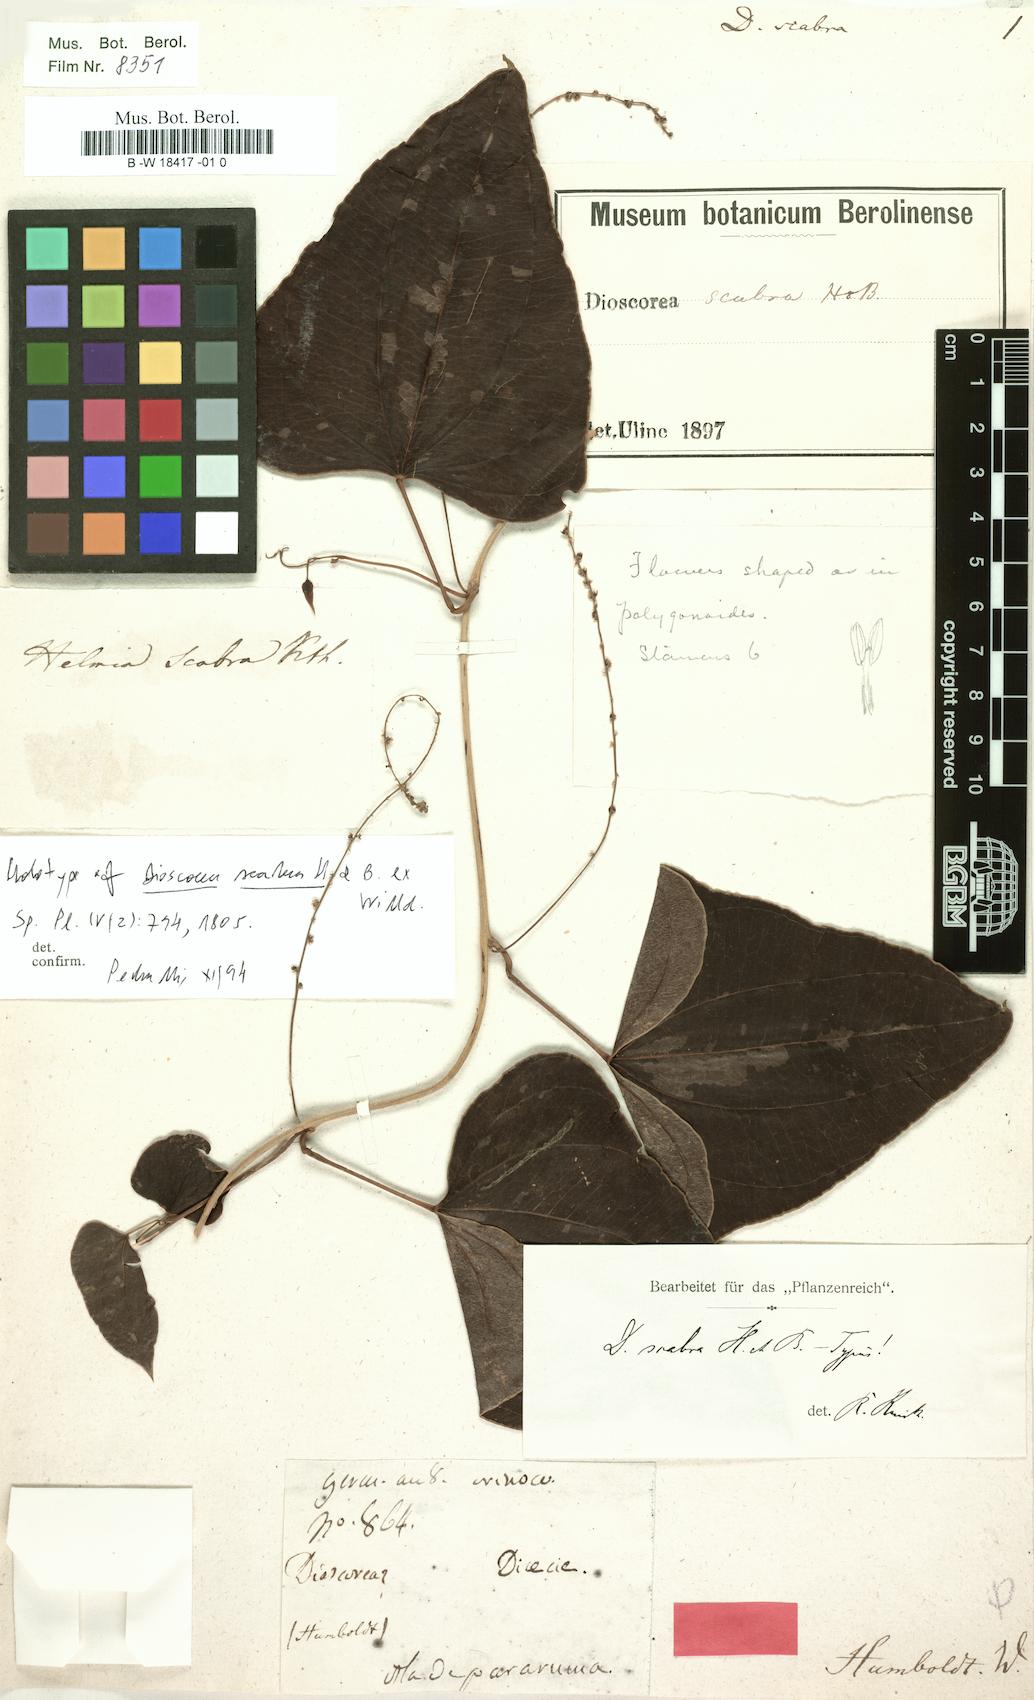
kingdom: Plantae
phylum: Tracheophyta
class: Liliopsida
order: Dioscoreales
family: Dioscoreaceae
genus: Dioscorea
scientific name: Dioscorea scabra
